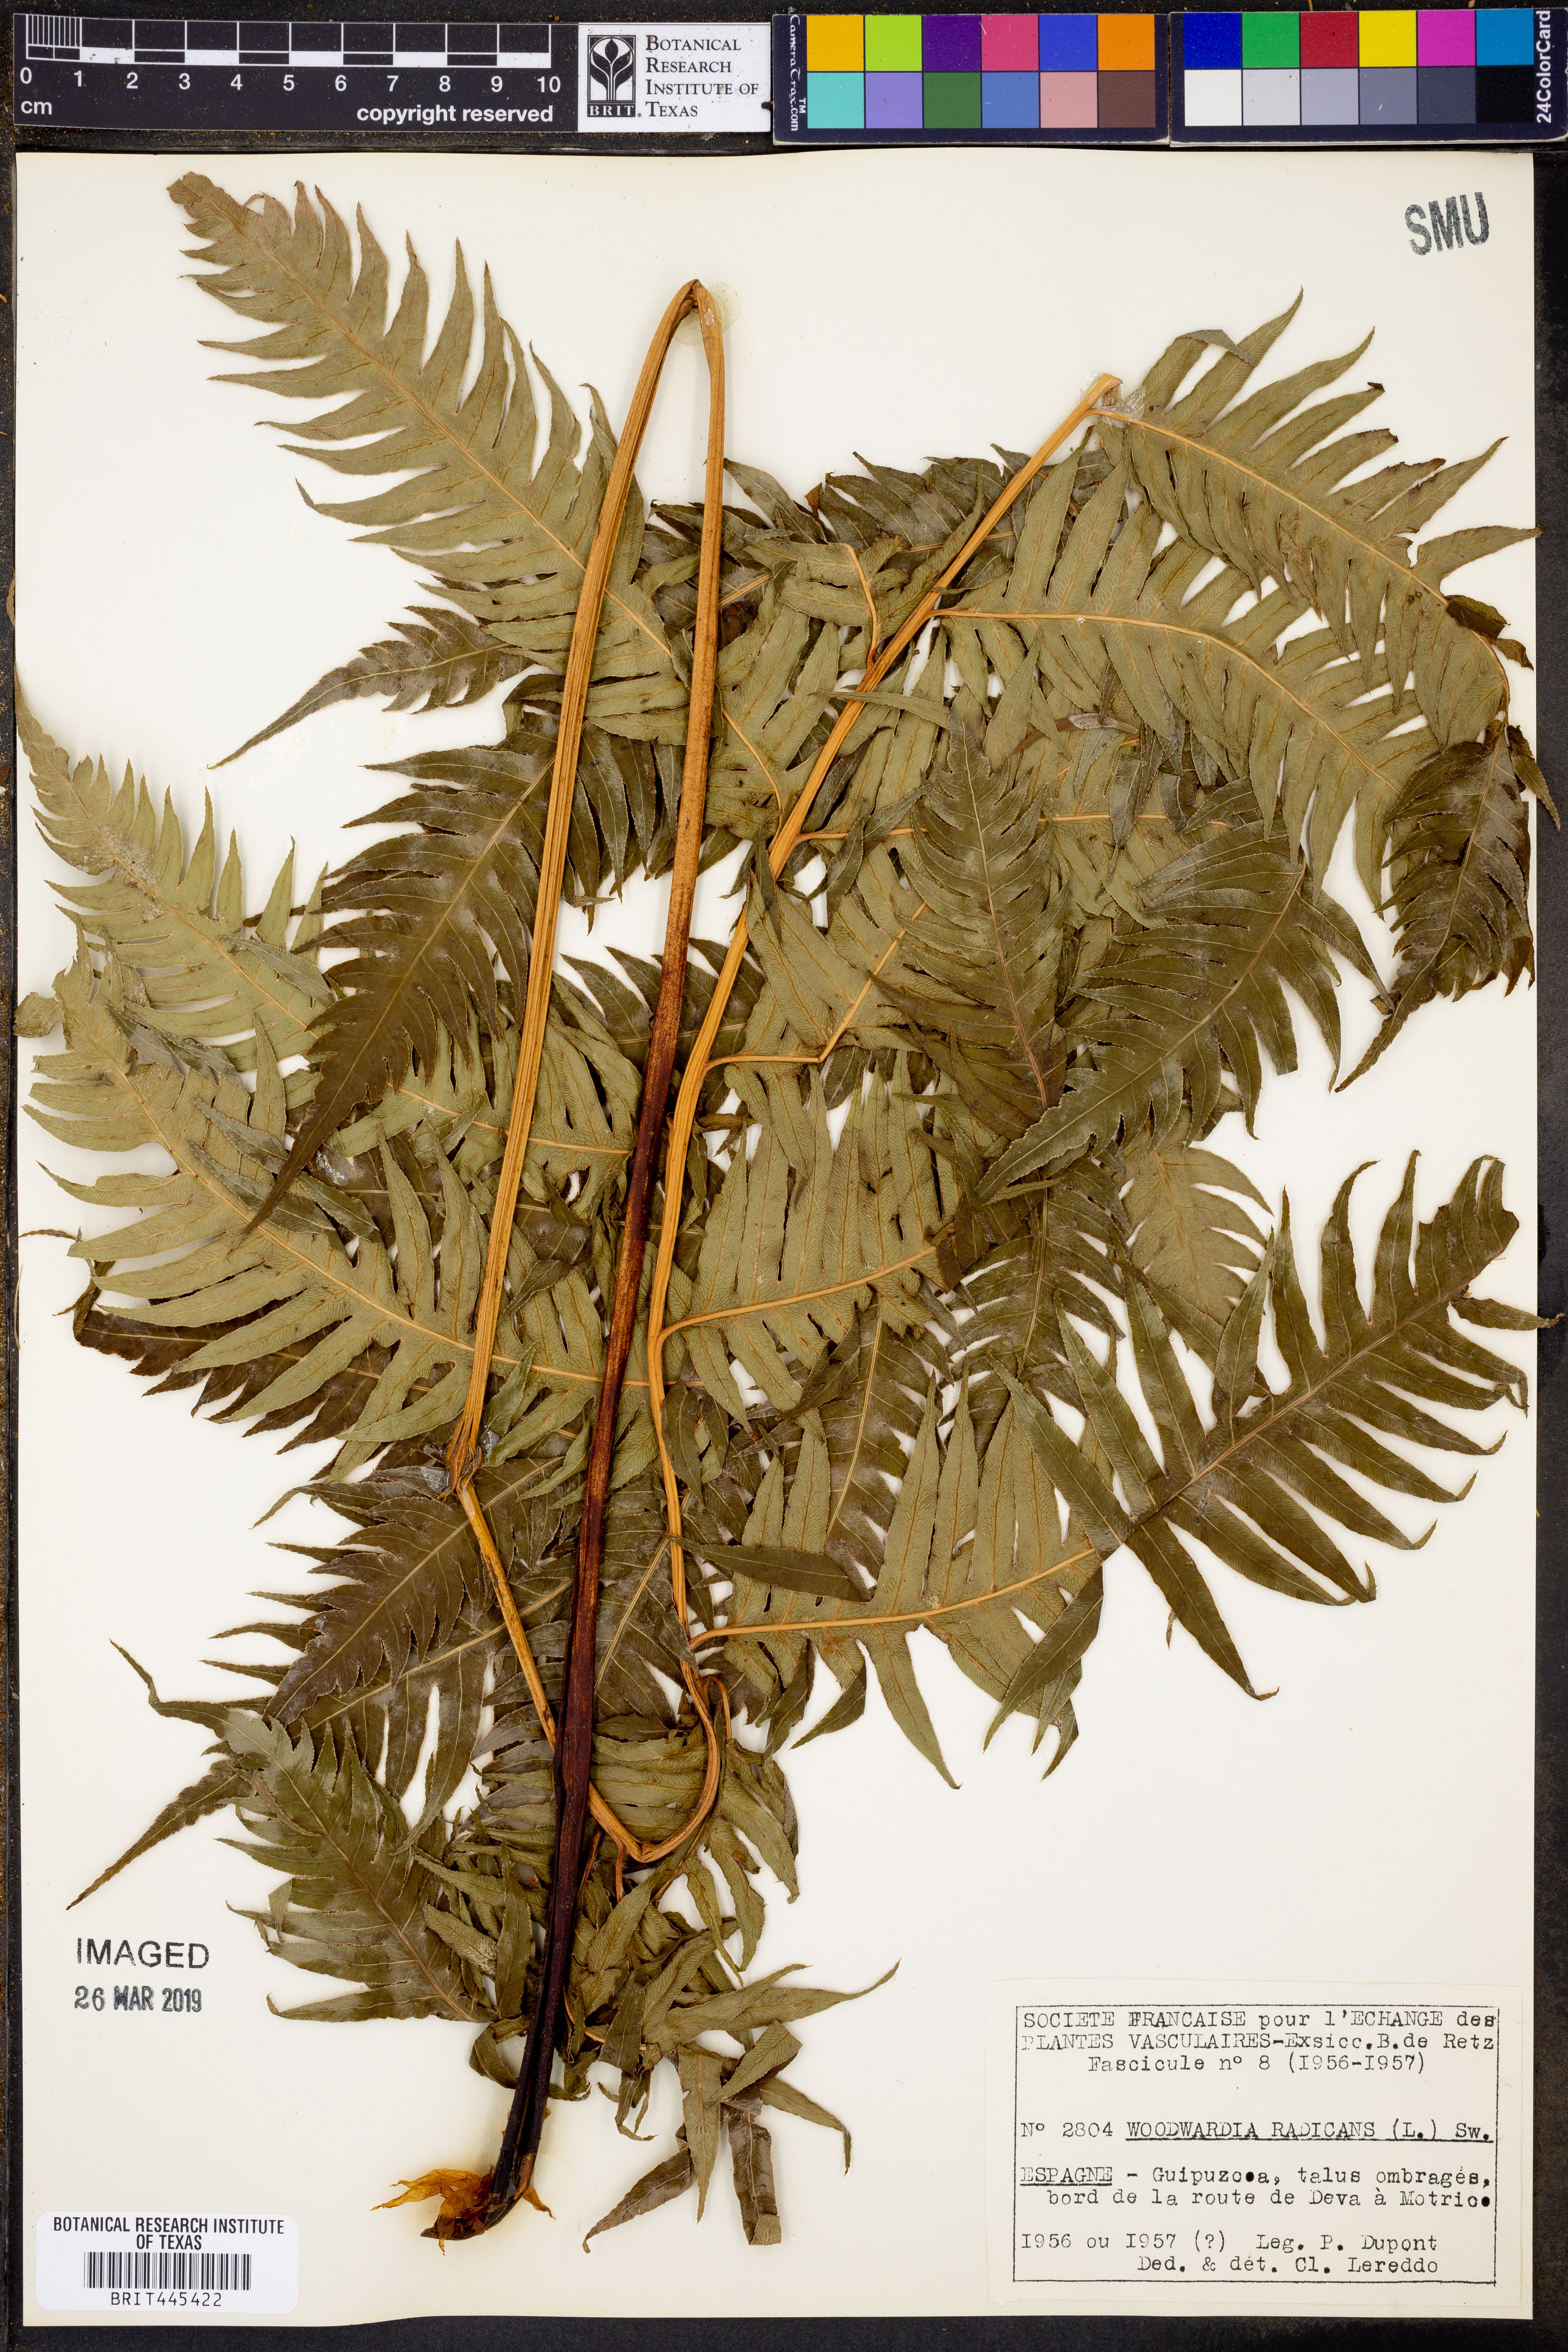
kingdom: Plantae
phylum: Tracheophyta
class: Polypodiopsida
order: Polypodiales
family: Blechnaceae
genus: Woodwardia
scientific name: Woodwardia radicans
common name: Rooting chainfern
